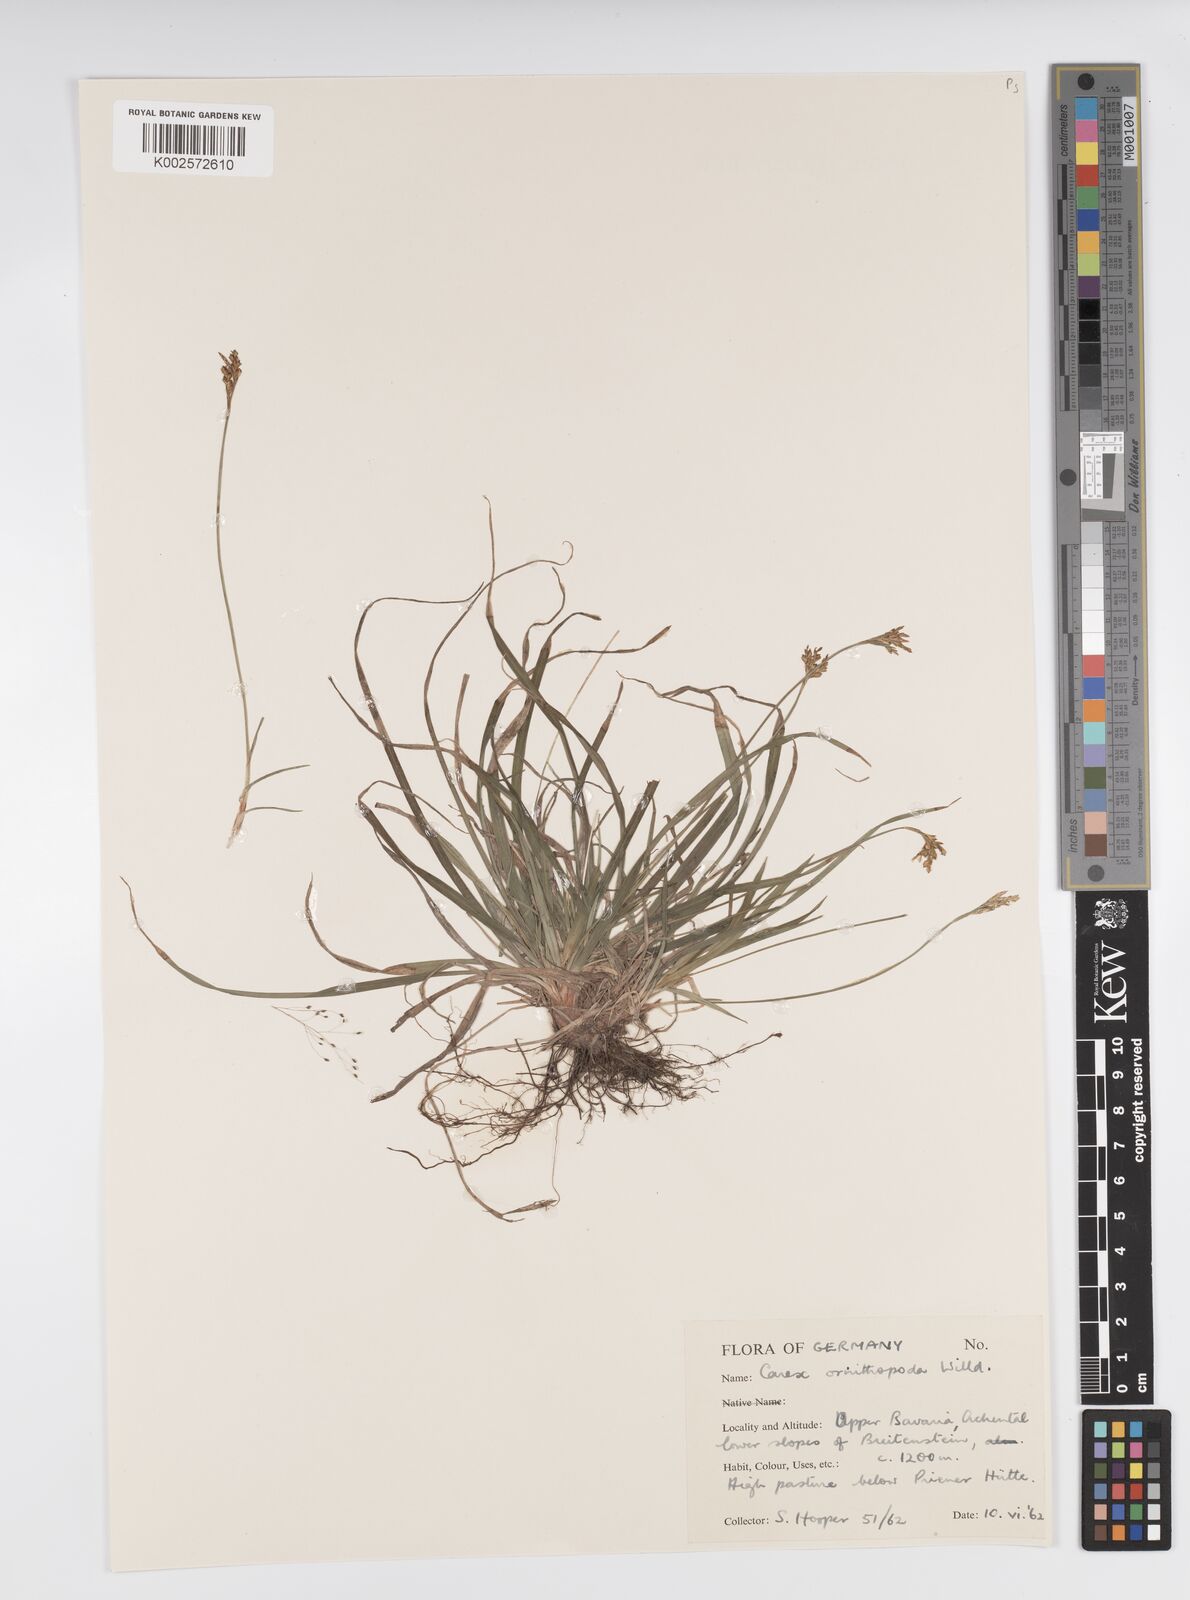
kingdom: Plantae
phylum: Tracheophyta
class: Liliopsida
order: Poales
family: Cyperaceae
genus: Carex
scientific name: Carex ornithopoda
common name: Bird's-foot sedge
